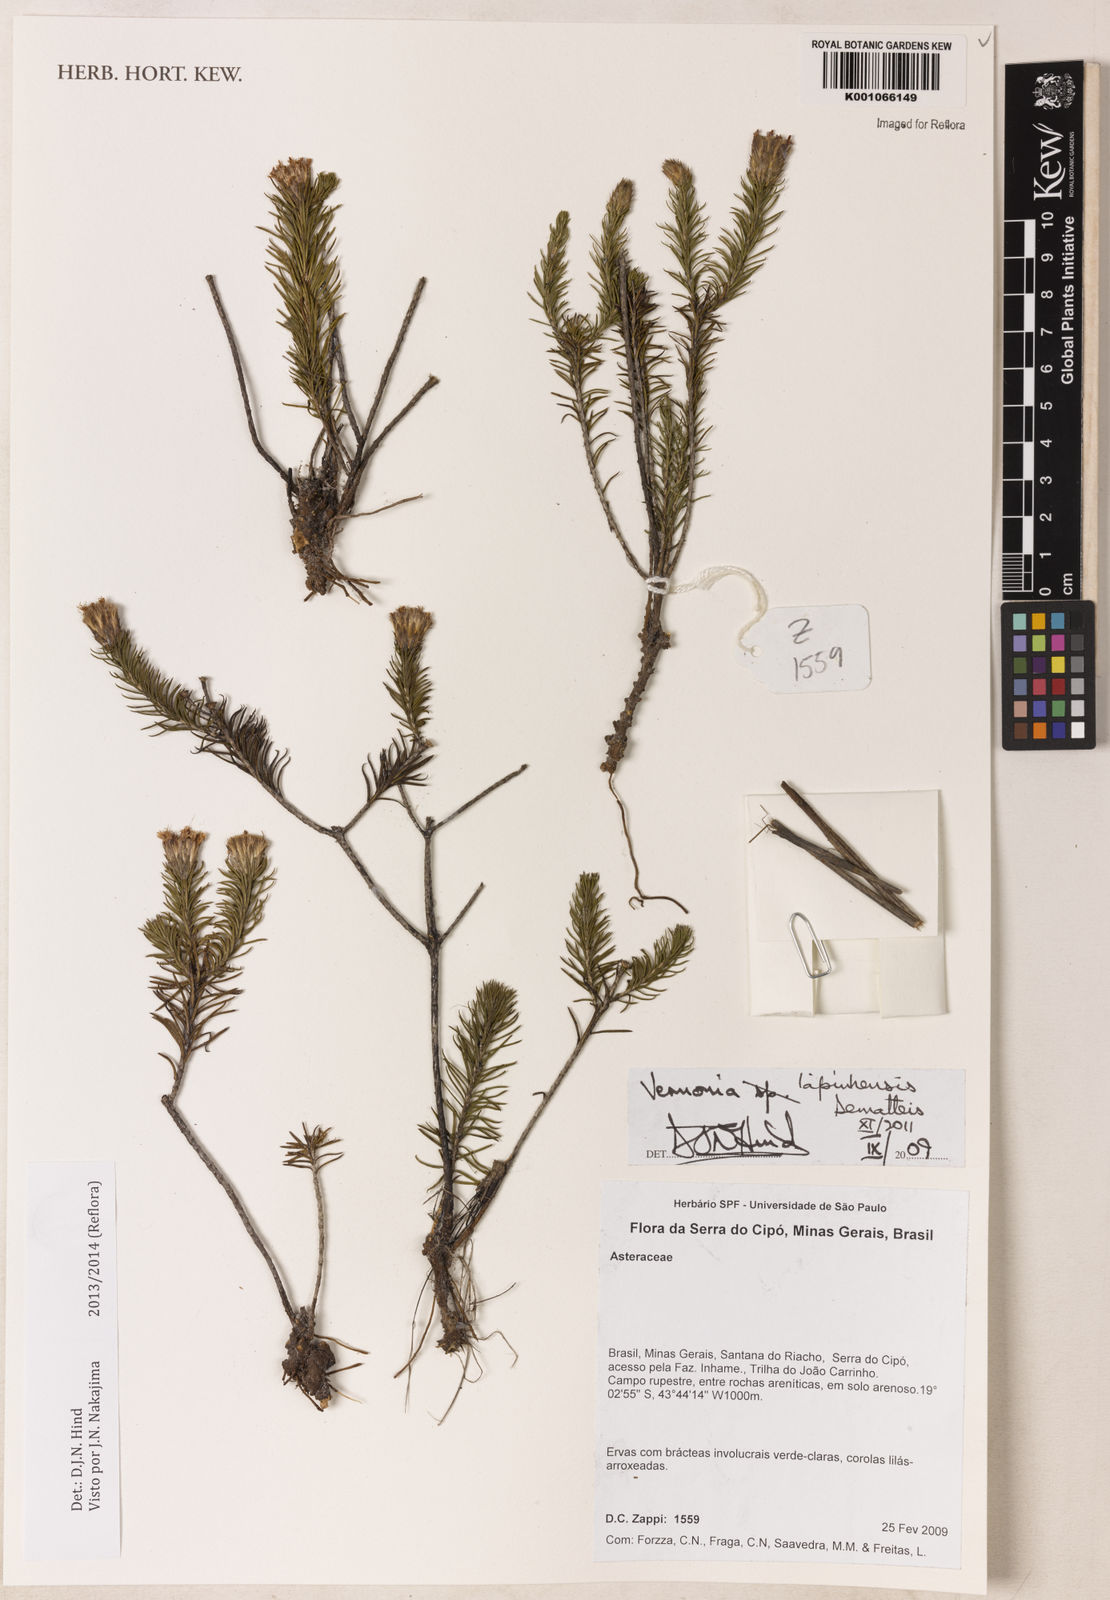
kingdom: Plantae
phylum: Tracheophyta
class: Magnoliopsida
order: Asterales
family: Asteraceae
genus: Vernonia
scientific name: Vernonia
